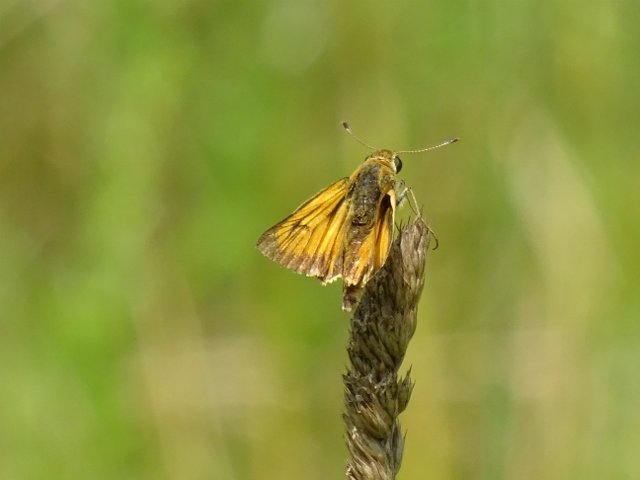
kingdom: Animalia
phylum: Arthropoda
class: Insecta
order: Lepidoptera
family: Hesperiidae
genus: Atrytone
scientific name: Atrytone delaware
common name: Delaware Skipper
